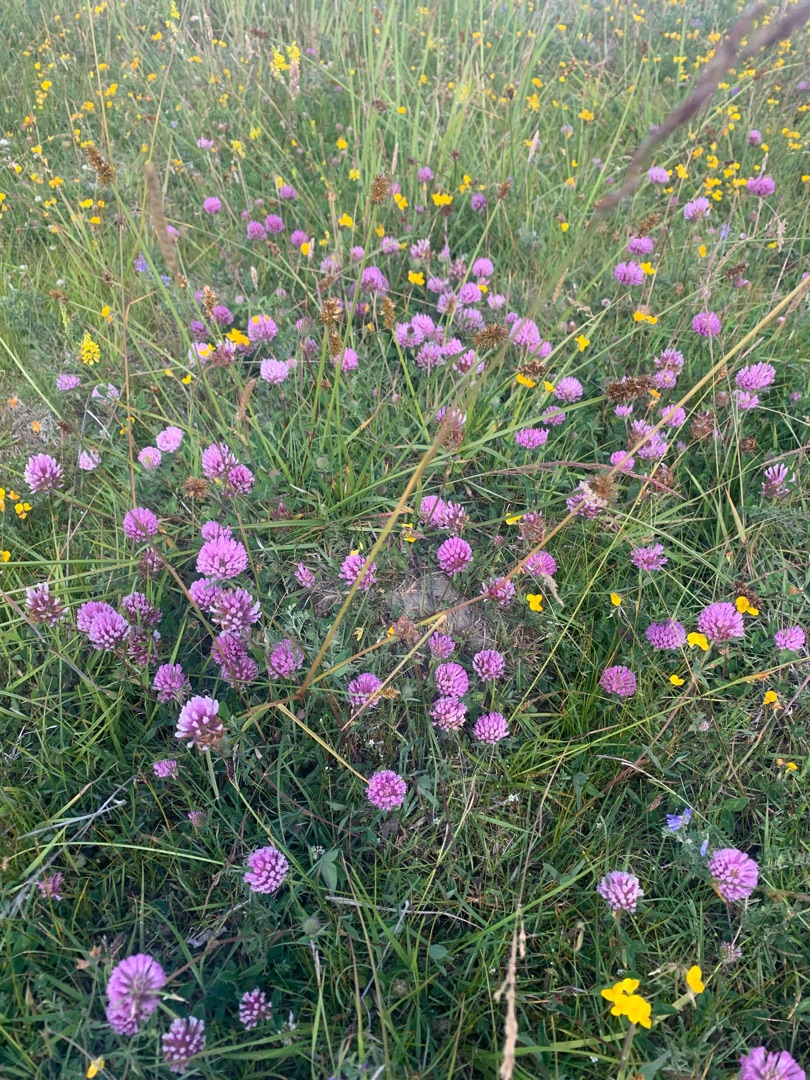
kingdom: Plantae
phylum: Tracheophyta
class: Magnoliopsida
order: Fabales
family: Fabaceae
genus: Trifolium
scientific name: Trifolium pratense
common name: Rød-kløver
